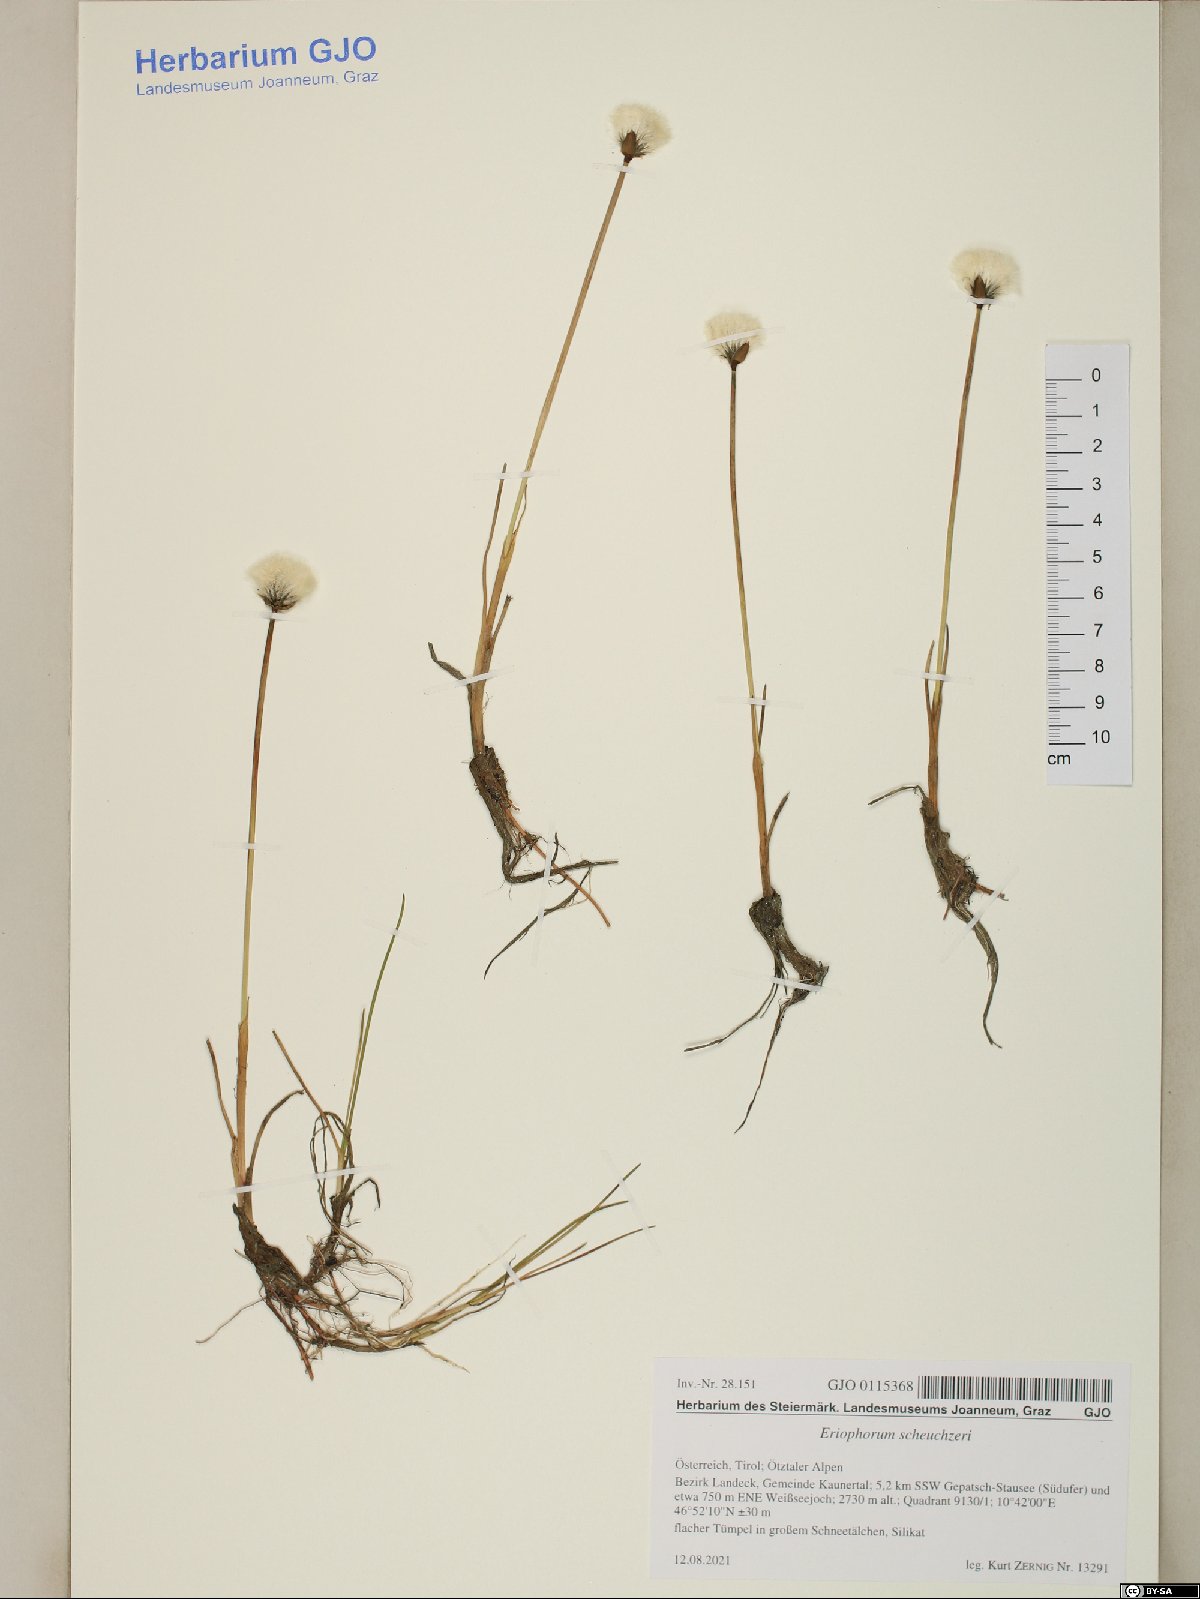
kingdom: Plantae
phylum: Tracheophyta
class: Liliopsida
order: Poales
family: Cyperaceae
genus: Eriophorum
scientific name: Eriophorum scheuchzeri
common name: Scheuchzer's cottongrass
